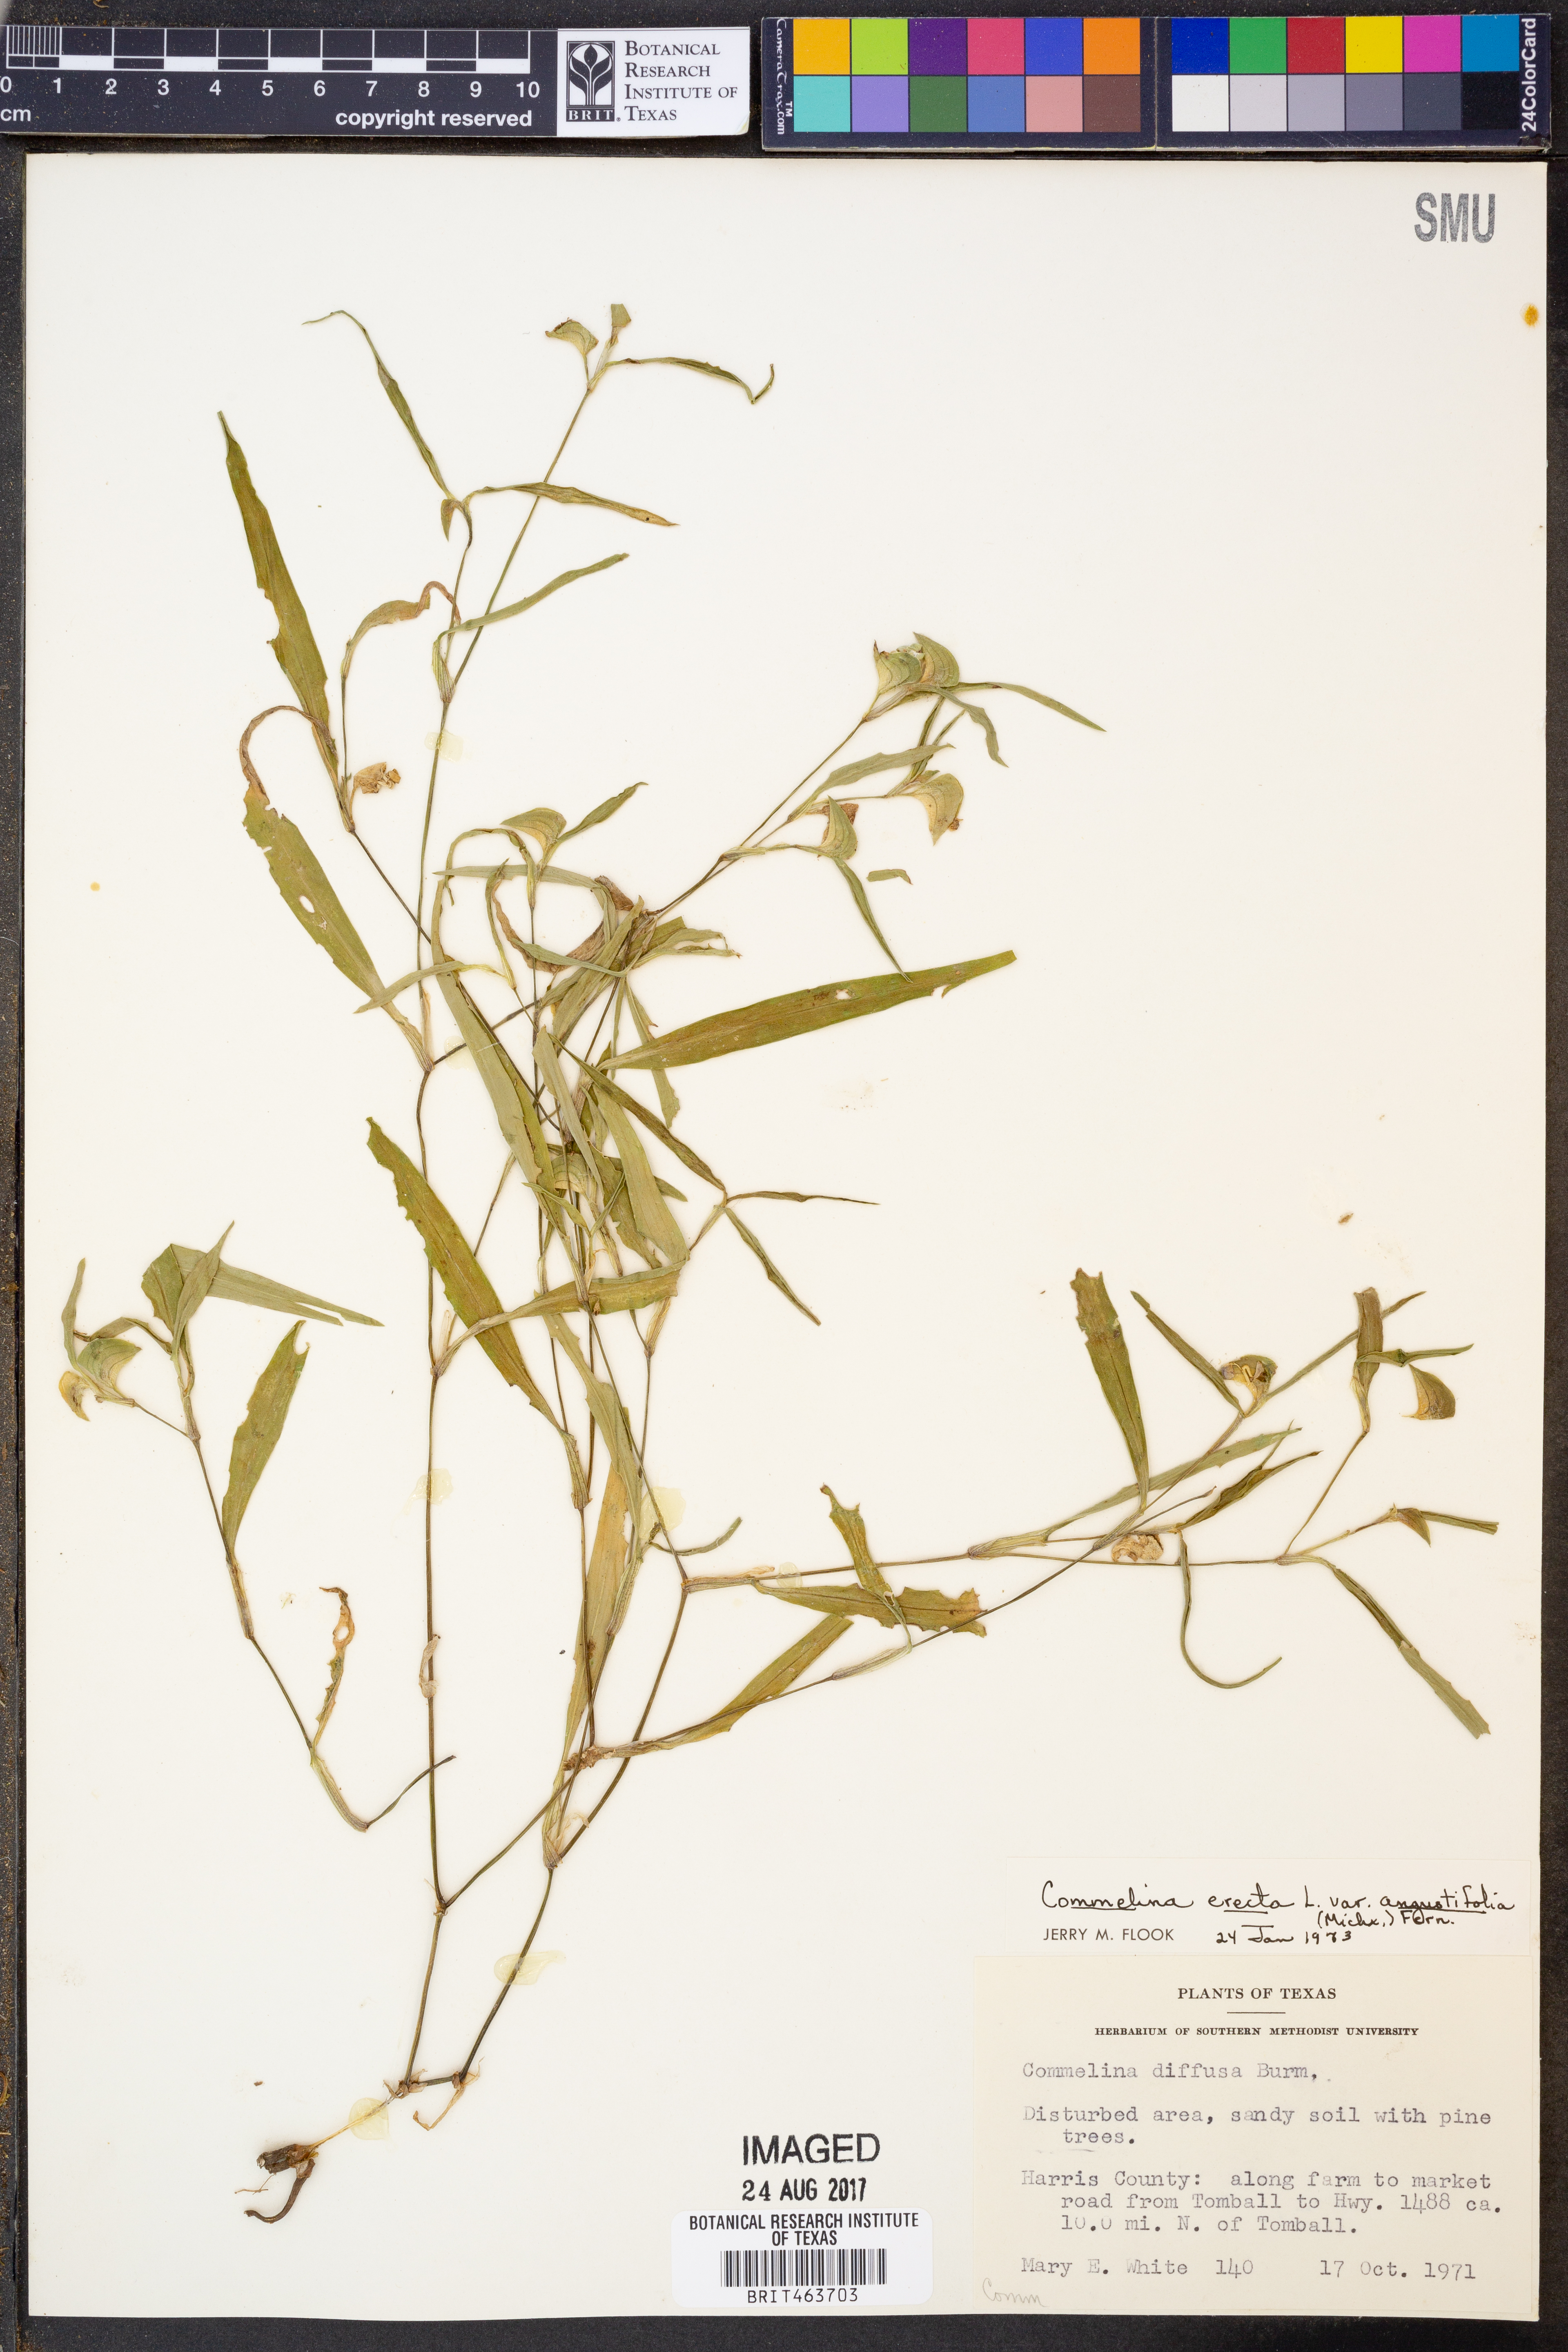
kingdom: Plantae
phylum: Tracheophyta
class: Liliopsida
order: Commelinales
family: Commelinaceae
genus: Commelina
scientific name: Commelina erecta
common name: Blousel blommetjie
